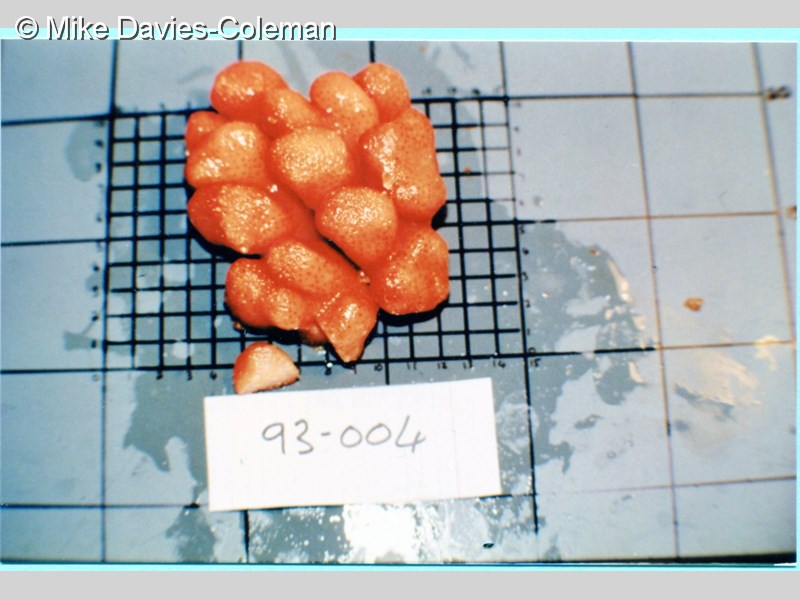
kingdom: Animalia
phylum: Chordata
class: Ascidiacea
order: Aplousobranchia
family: Pseudodistomidae
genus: Pseudodistoma
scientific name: Pseudodistoma
